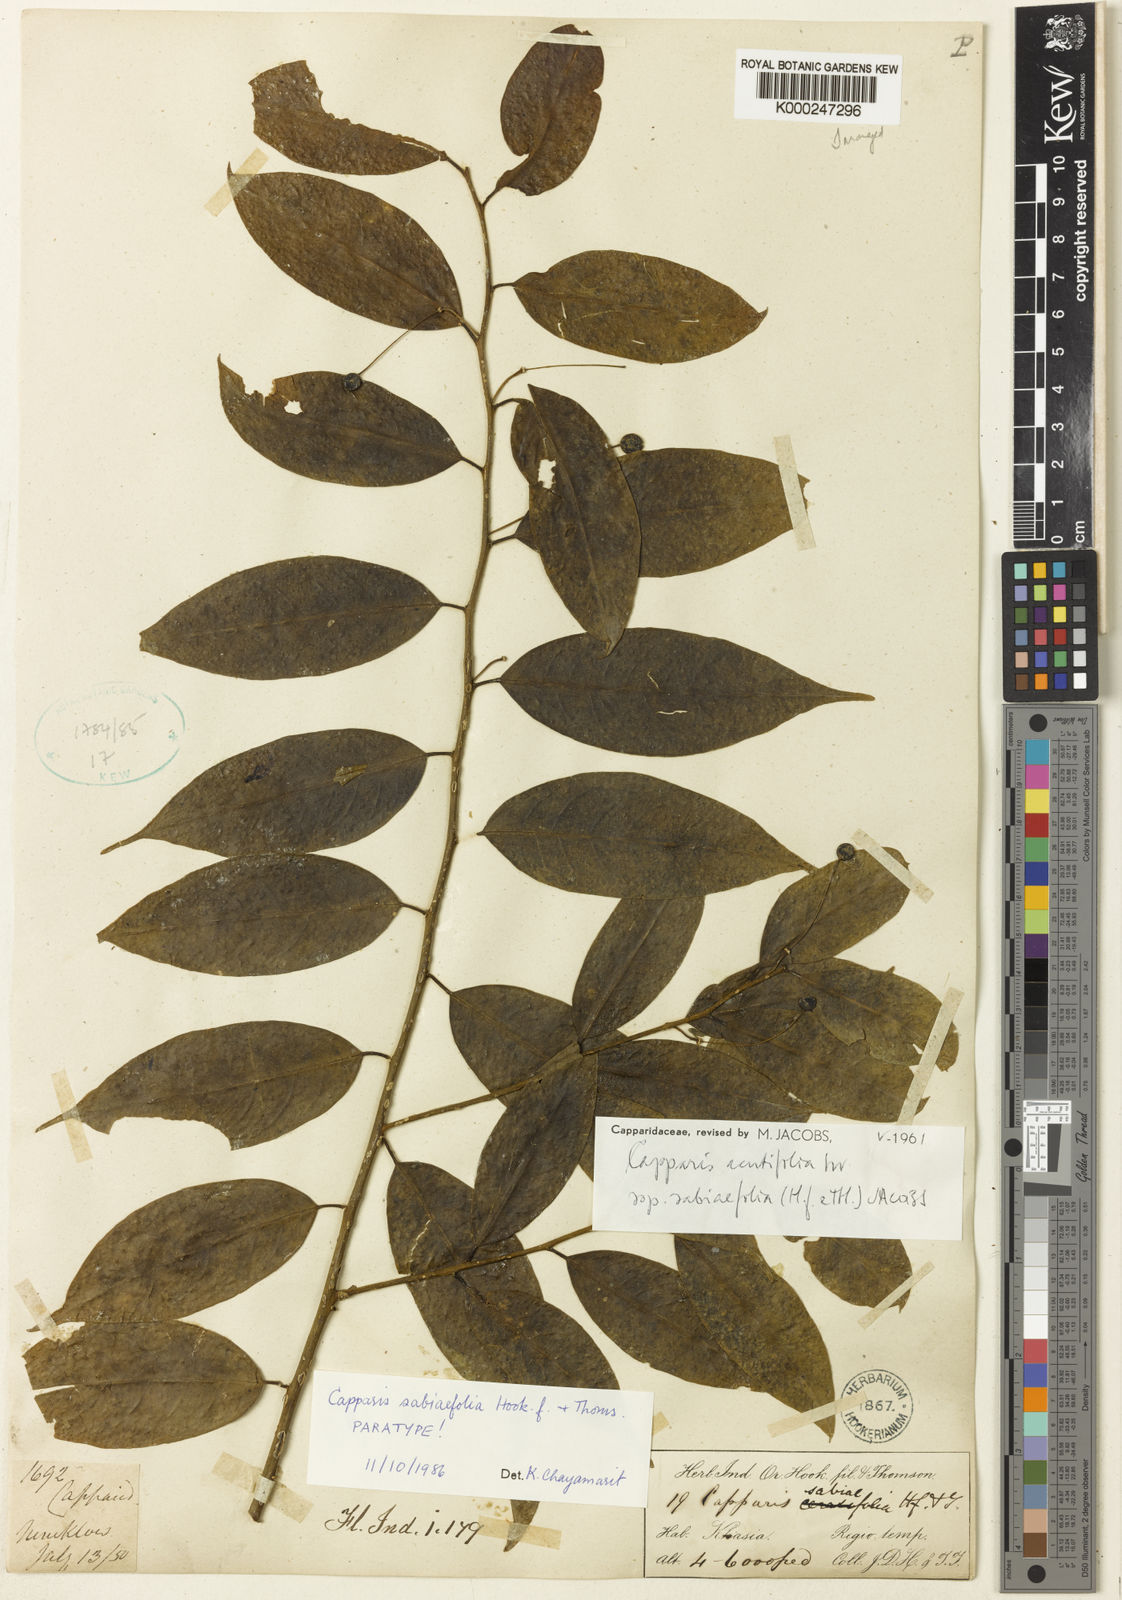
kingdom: Plantae
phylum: Tracheophyta
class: Magnoliopsida
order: Brassicales
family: Capparaceae
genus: Capparis
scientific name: Capparis acutifolia
